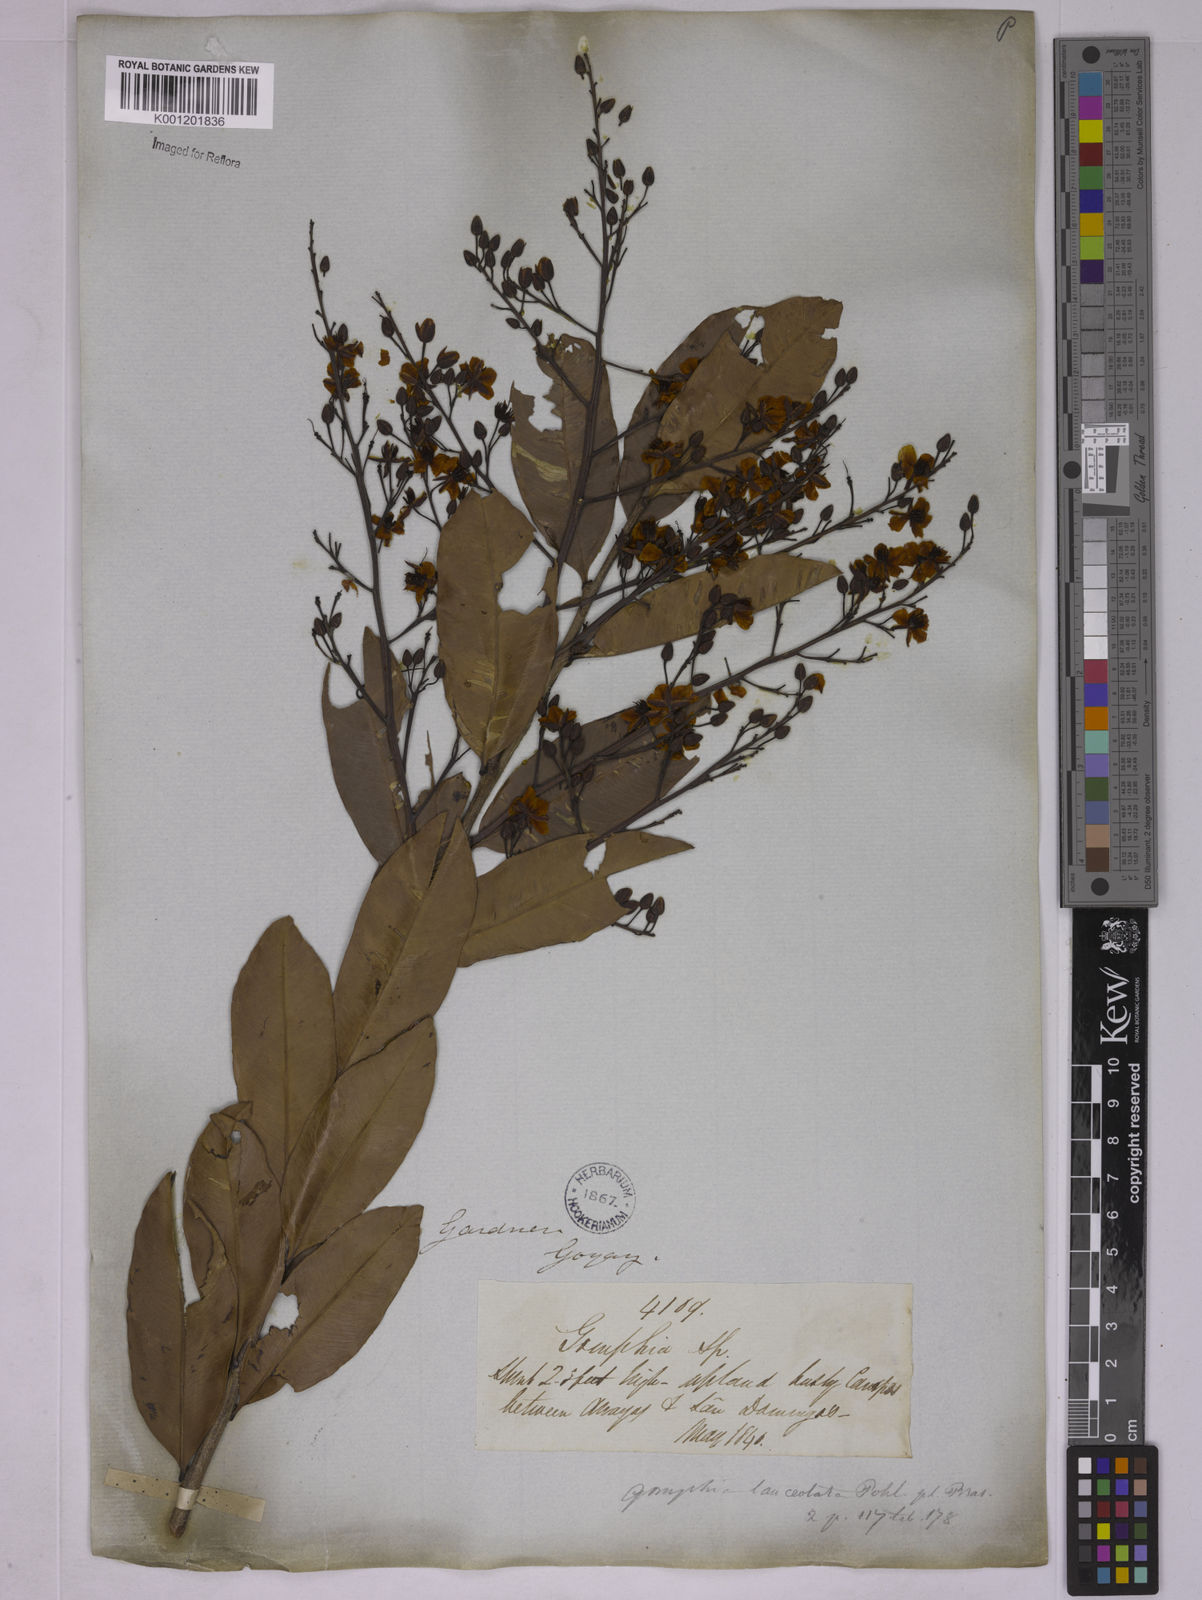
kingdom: Plantae
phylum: Tracheophyta
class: Magnoliopsida
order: Malpighiales
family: Ochnaceae
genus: Ouratea
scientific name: Ouratea confertiflora
